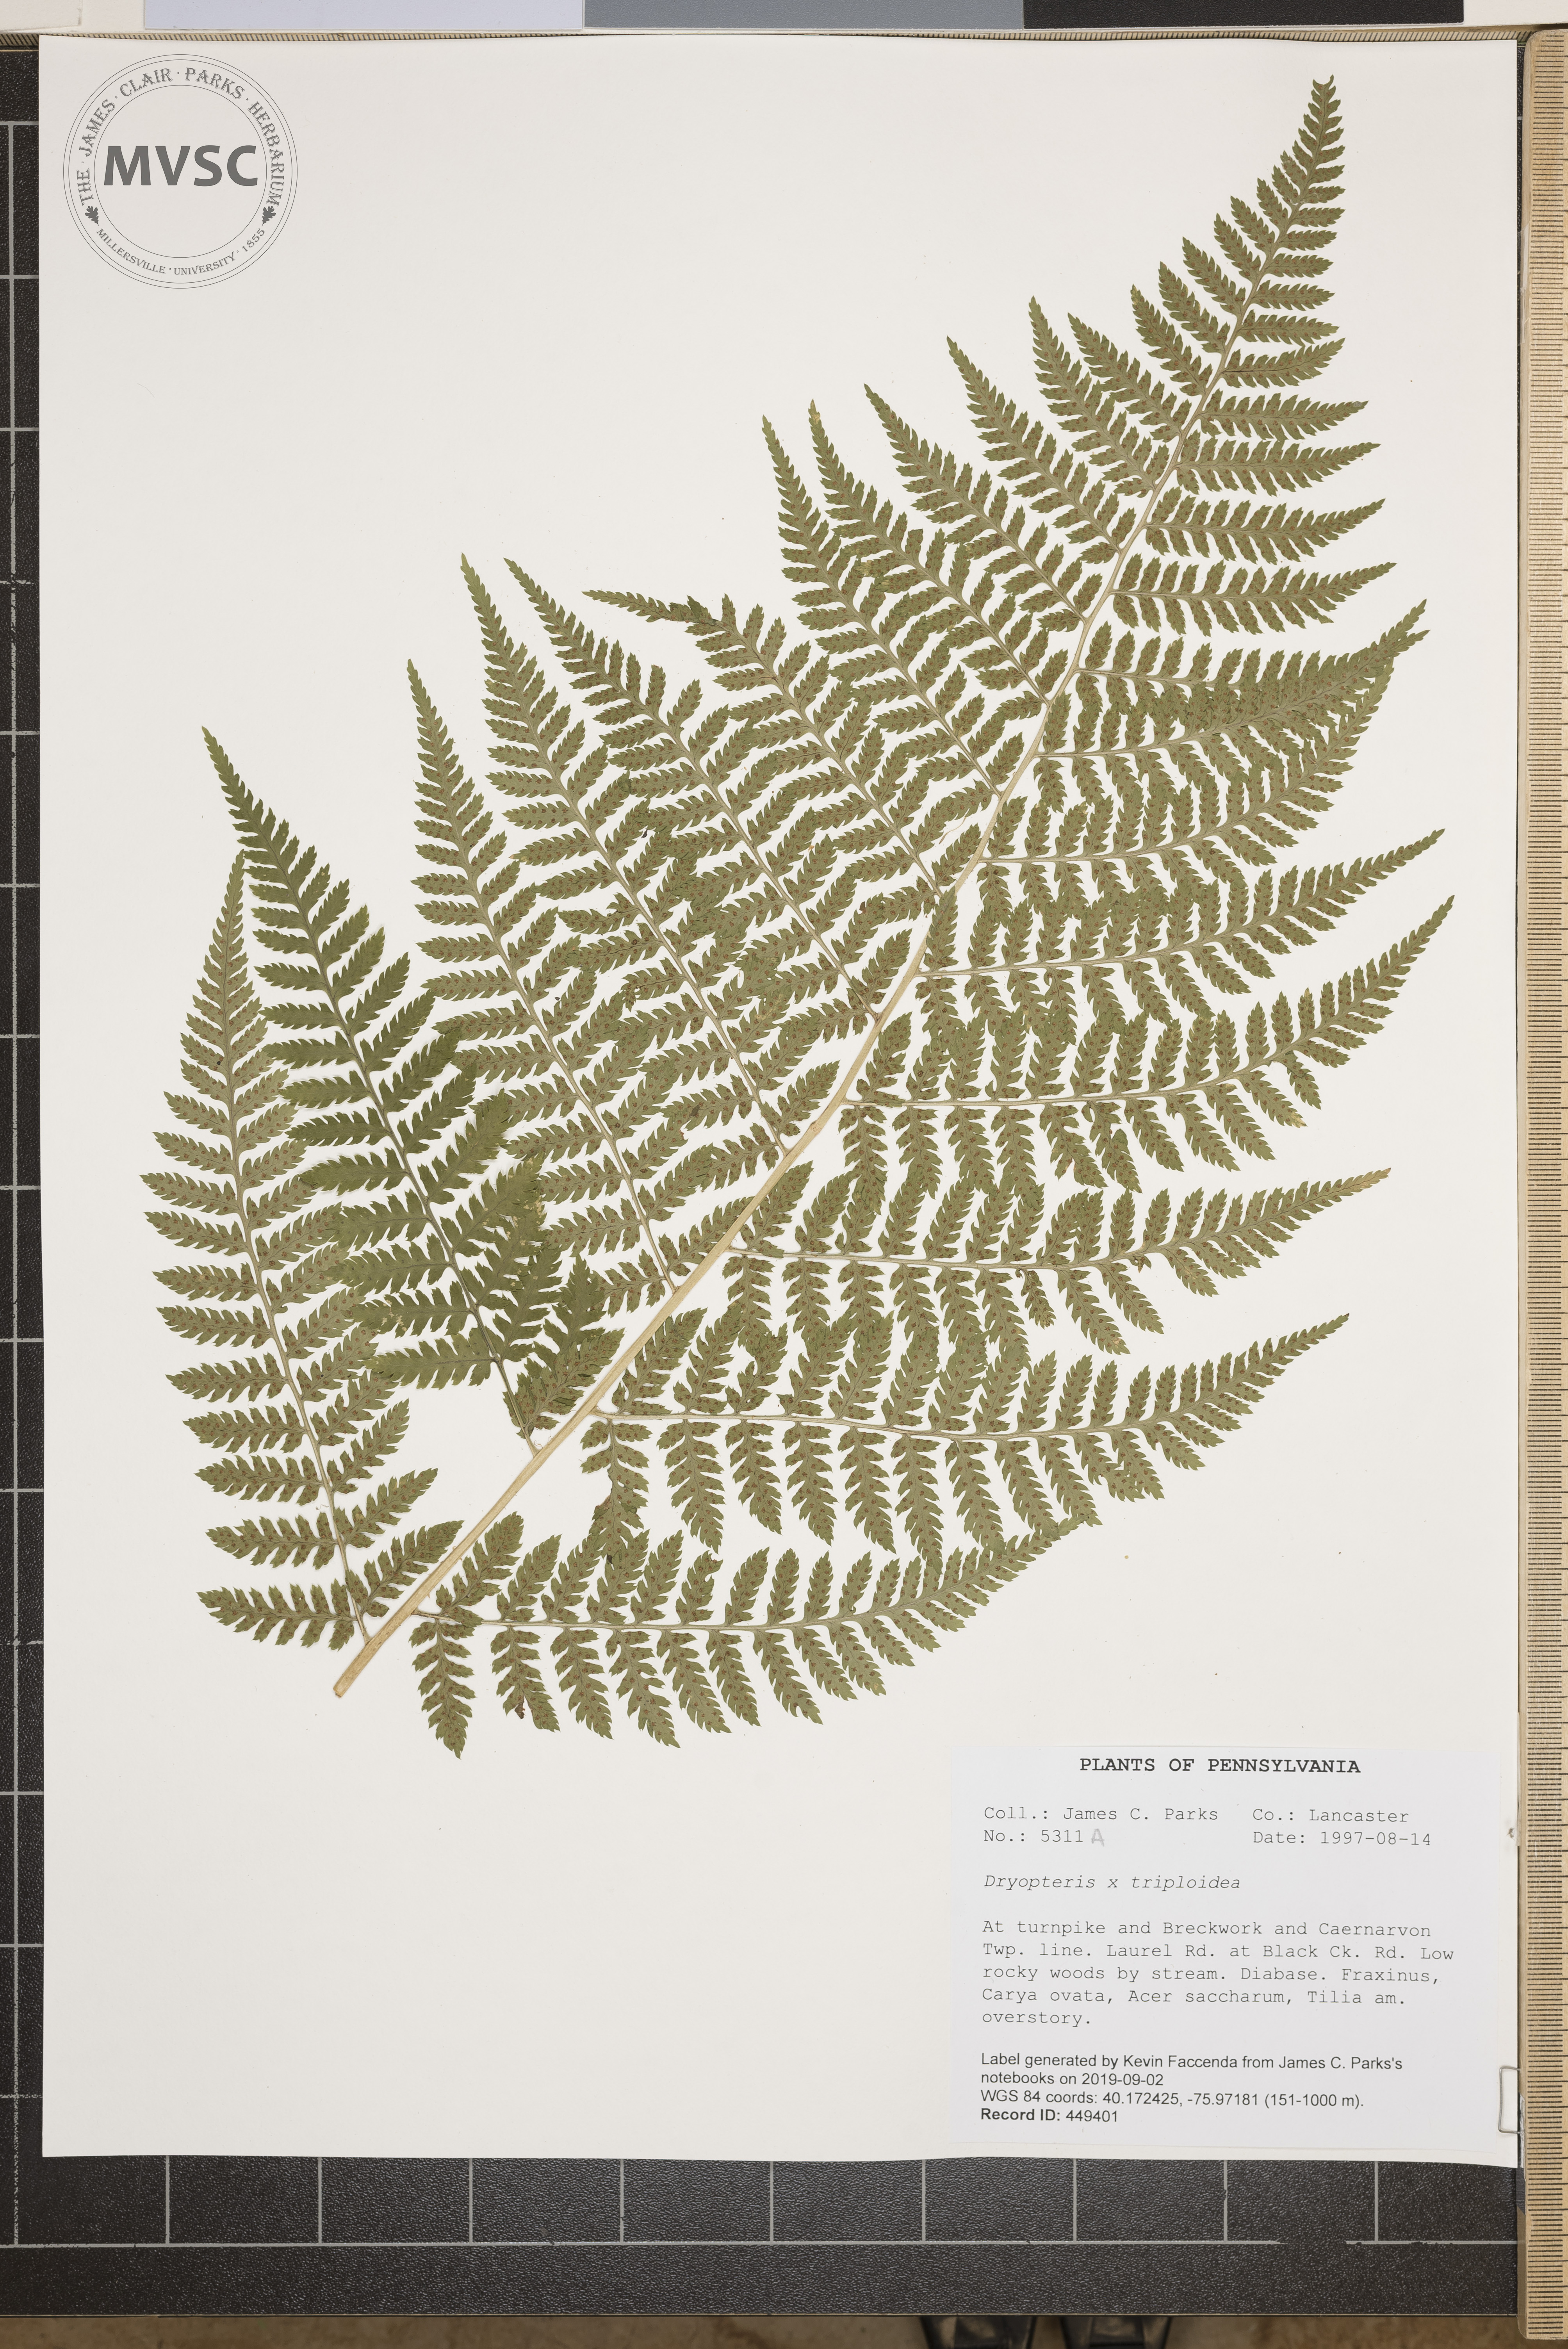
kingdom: Plantae
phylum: Tracheophyta
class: Polypodiopsida
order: Polypodiales
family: Dryopteridaceae
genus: Dryopteris
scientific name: Dryopteris triploidea
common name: Fruitful wood fern
